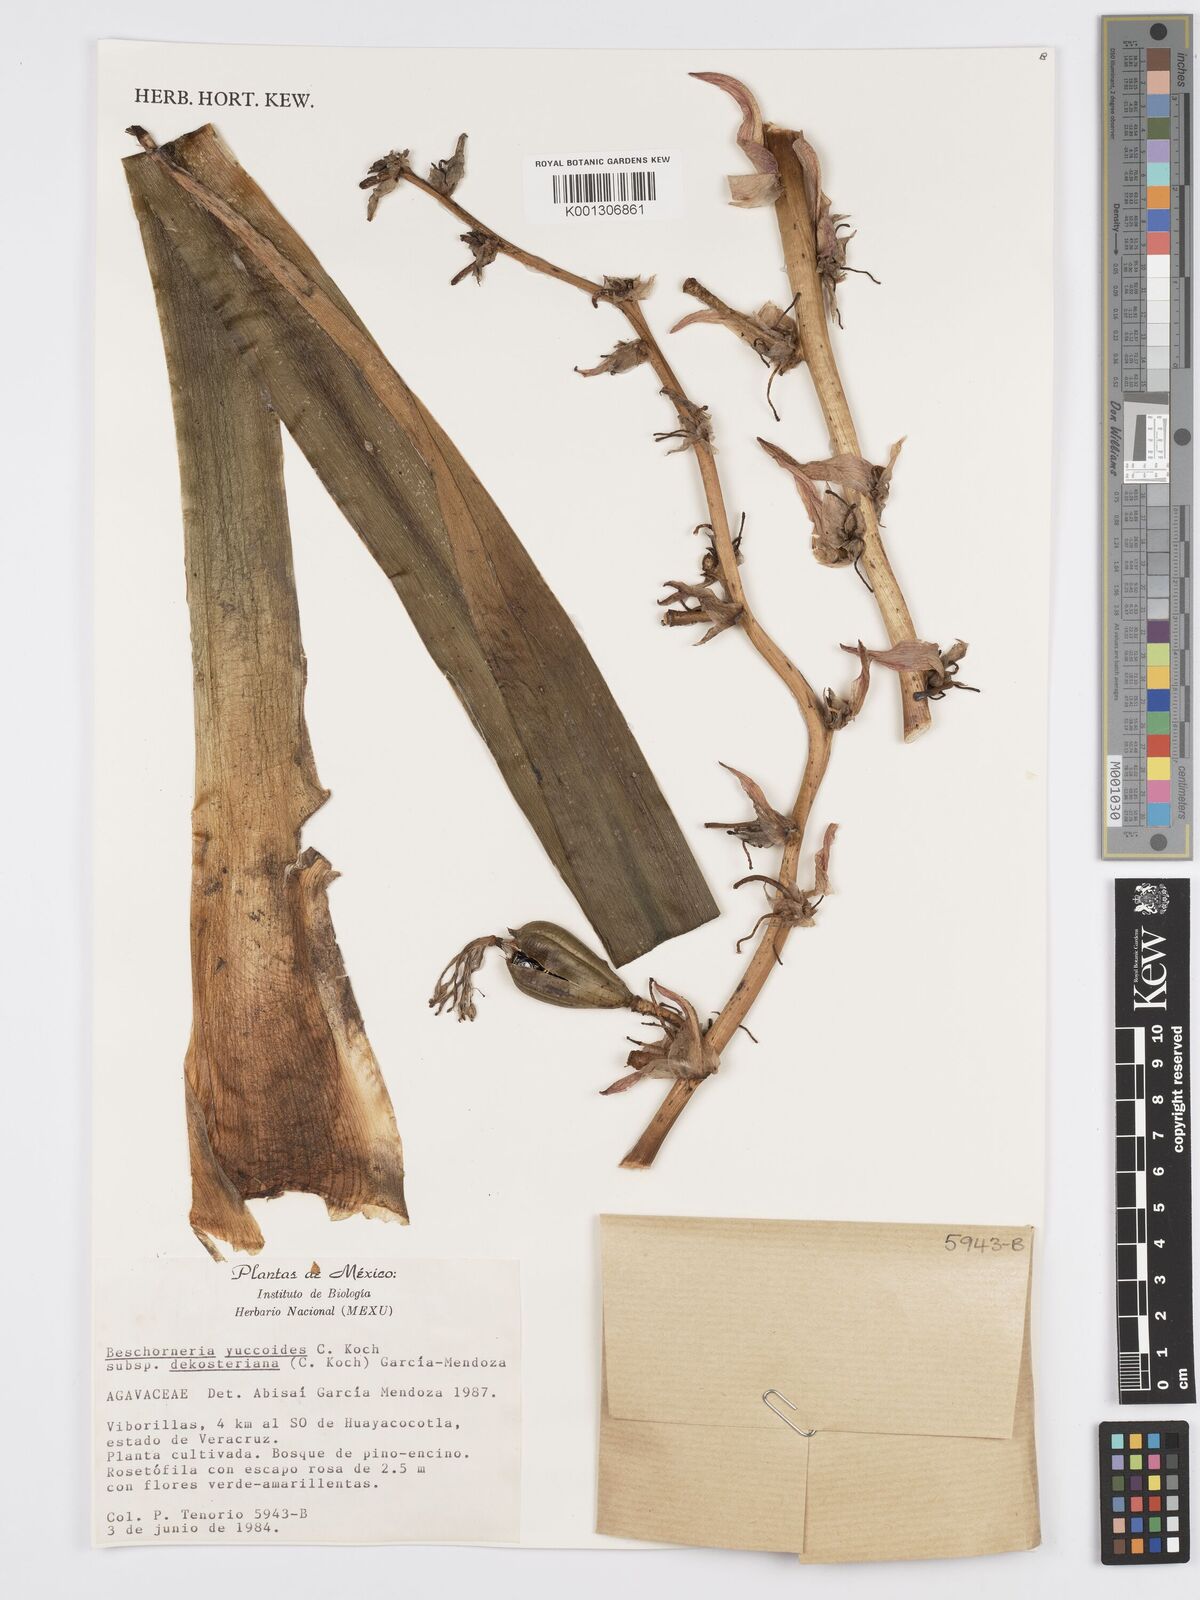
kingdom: Plantae
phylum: Tracheophyta
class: Liliopsida
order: Asparagales
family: Asparagaceae
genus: Beschorneria
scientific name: Beschorneria yuccoides
